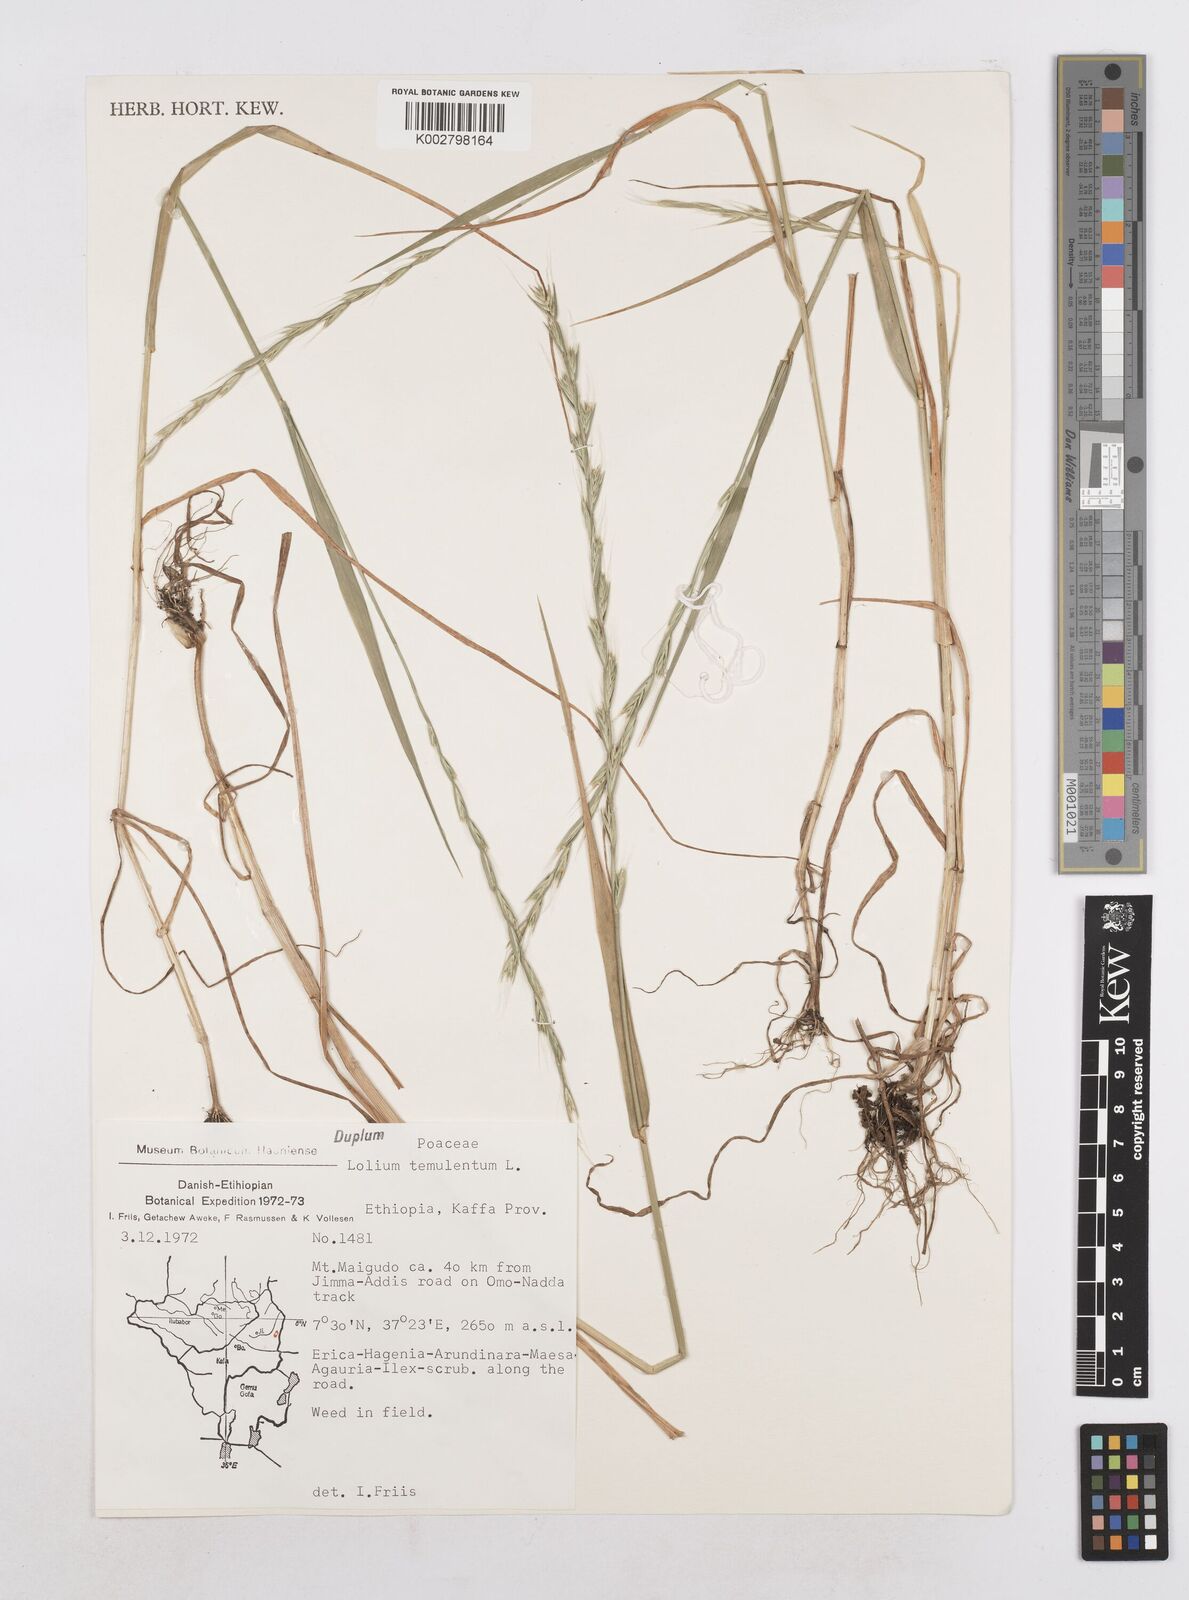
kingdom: Plantae
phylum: Tracheophyta
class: Liliopsida
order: Poales
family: Poaceae
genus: Lolium
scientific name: Lolium temulentum
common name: Darnel
